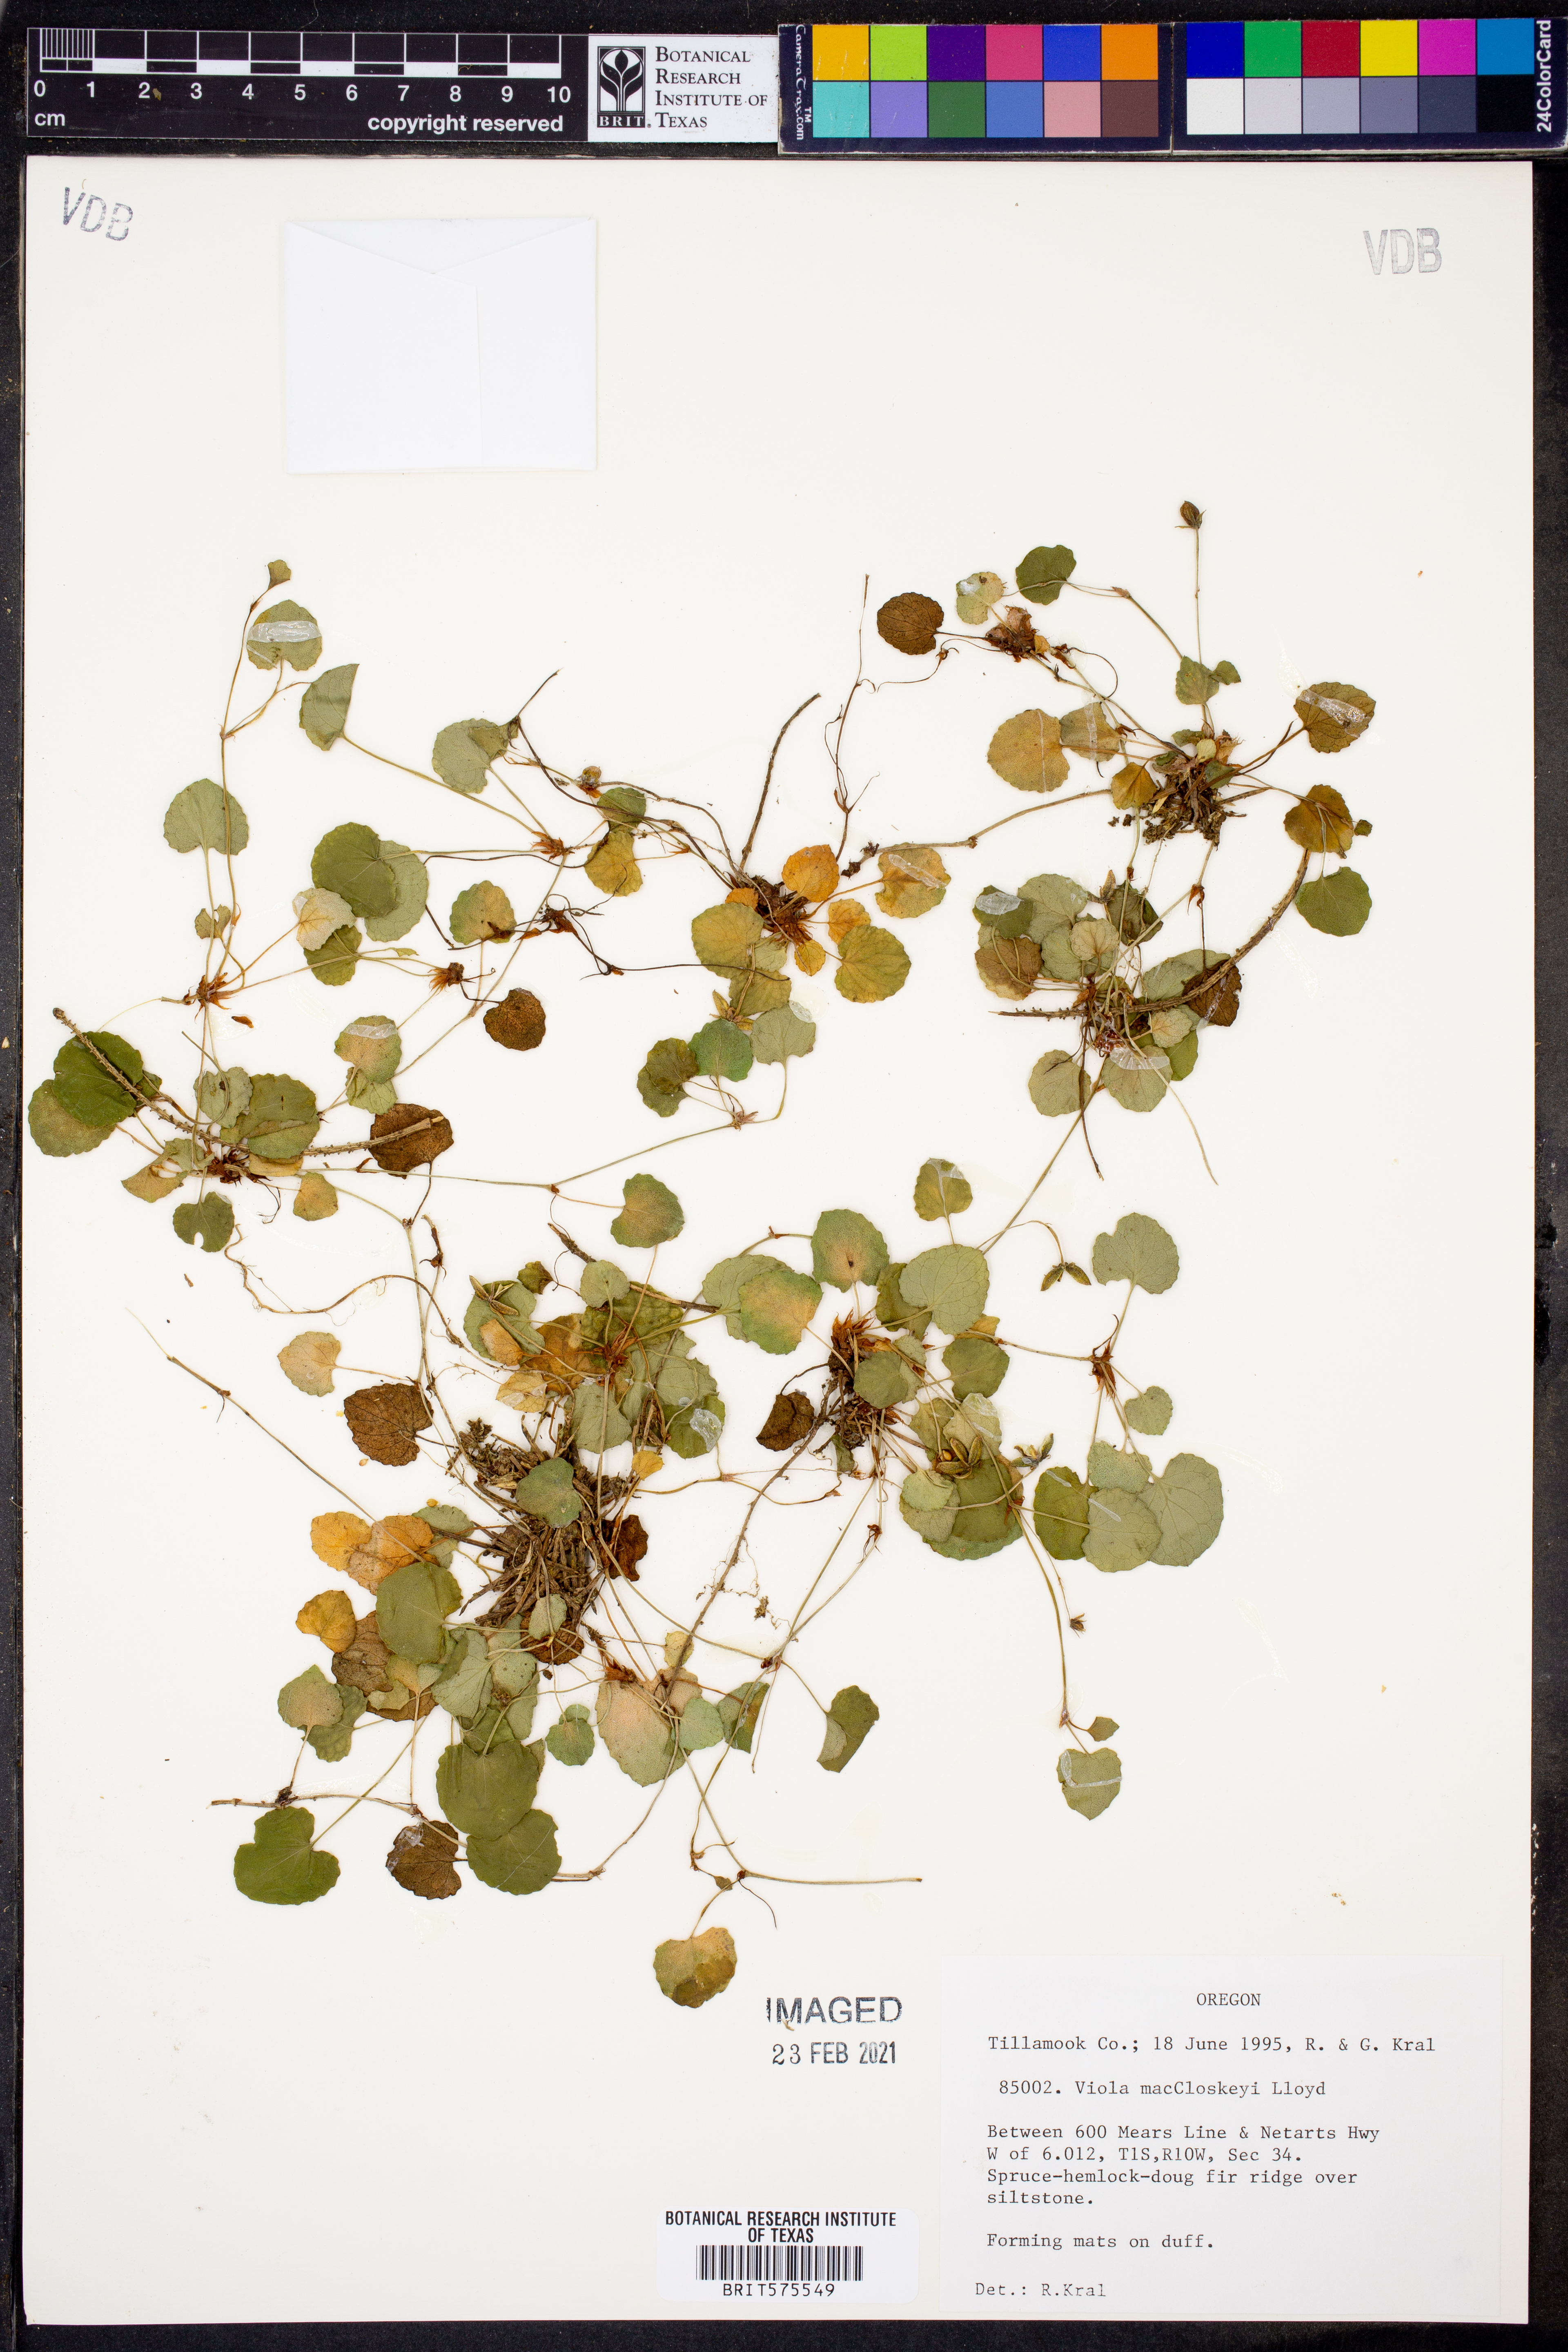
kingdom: Plantae
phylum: Tracheophyta
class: Magnoliopsida
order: Malpighiales
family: Violaceae
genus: Viola
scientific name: Viola macloskeyi
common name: Macloskey's violet
